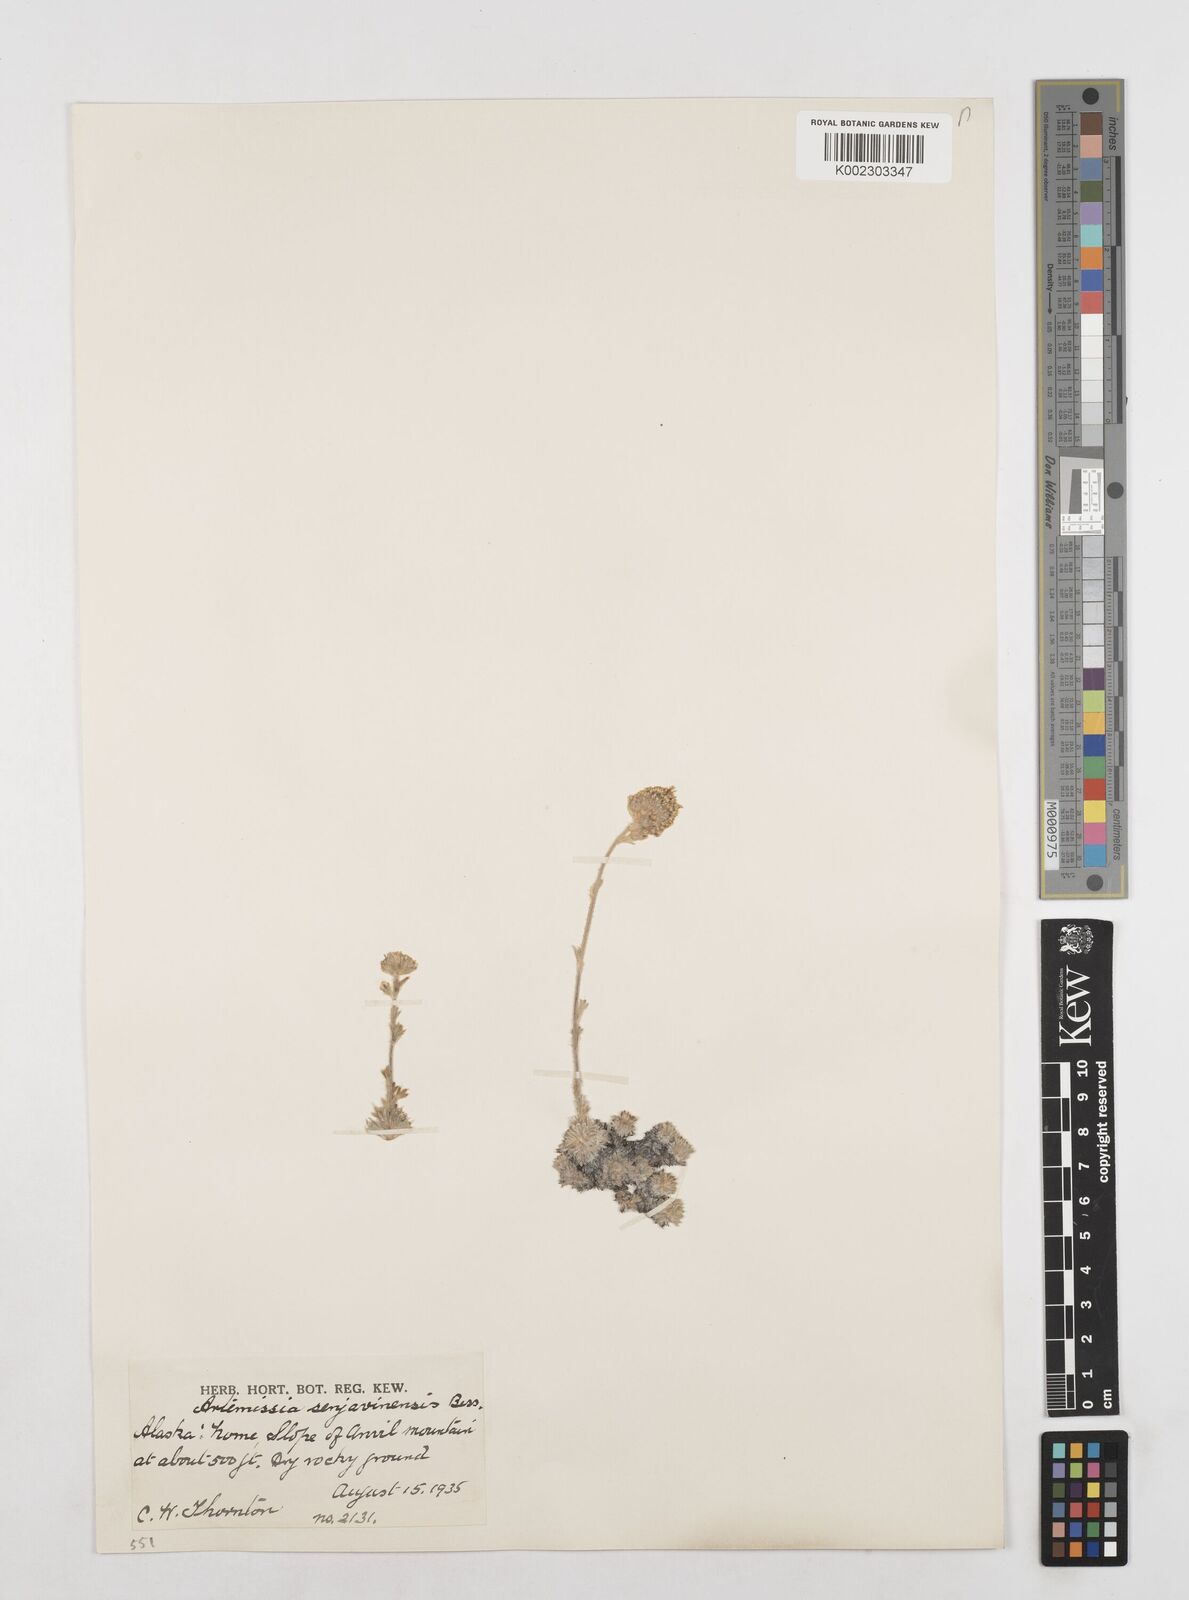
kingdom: Plantae
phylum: Tracheophyta
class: Magnoliopsida
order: Asterales
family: Asteraceae
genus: Artemisia
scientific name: Artemisia senjavinensis
